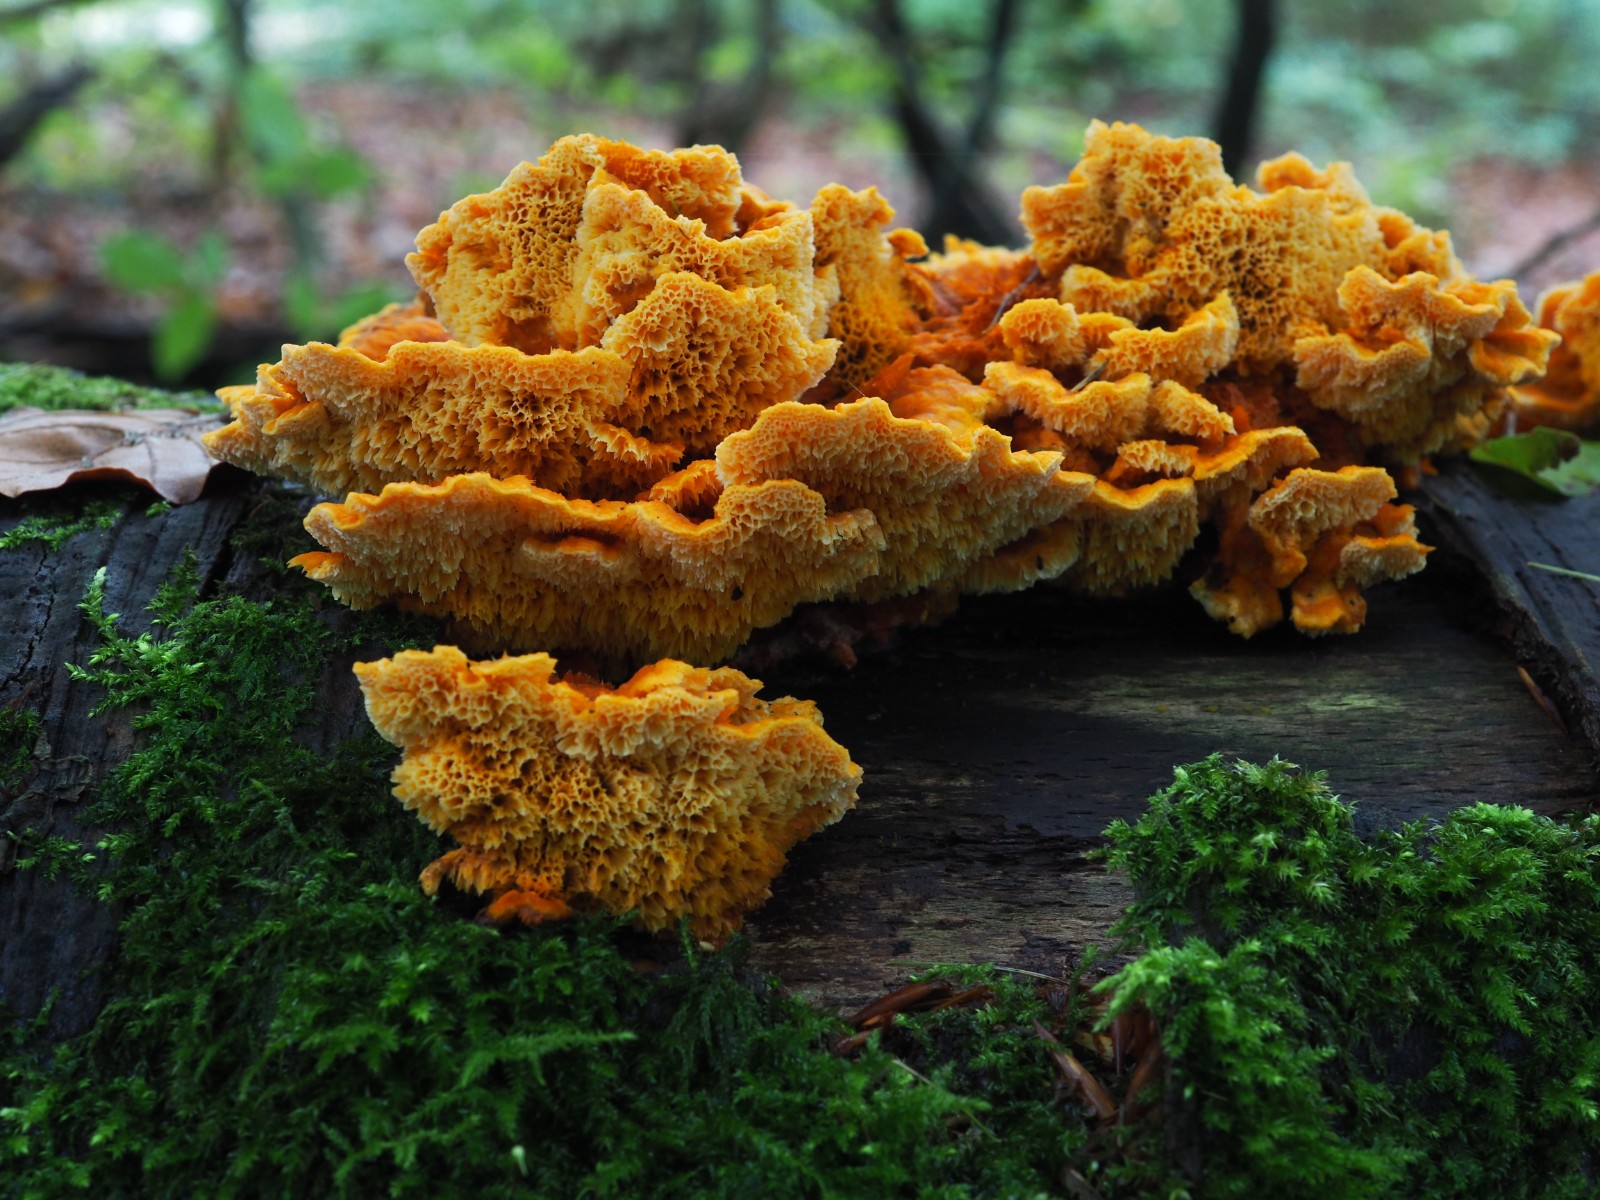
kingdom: Fungi
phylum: Basidiomycota
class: Agaricomycetes
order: Polyporales
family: Pycnoporellaceae
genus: Pycnoporellus
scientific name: Pycnoporellus fulgens
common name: flammeporesvamp
